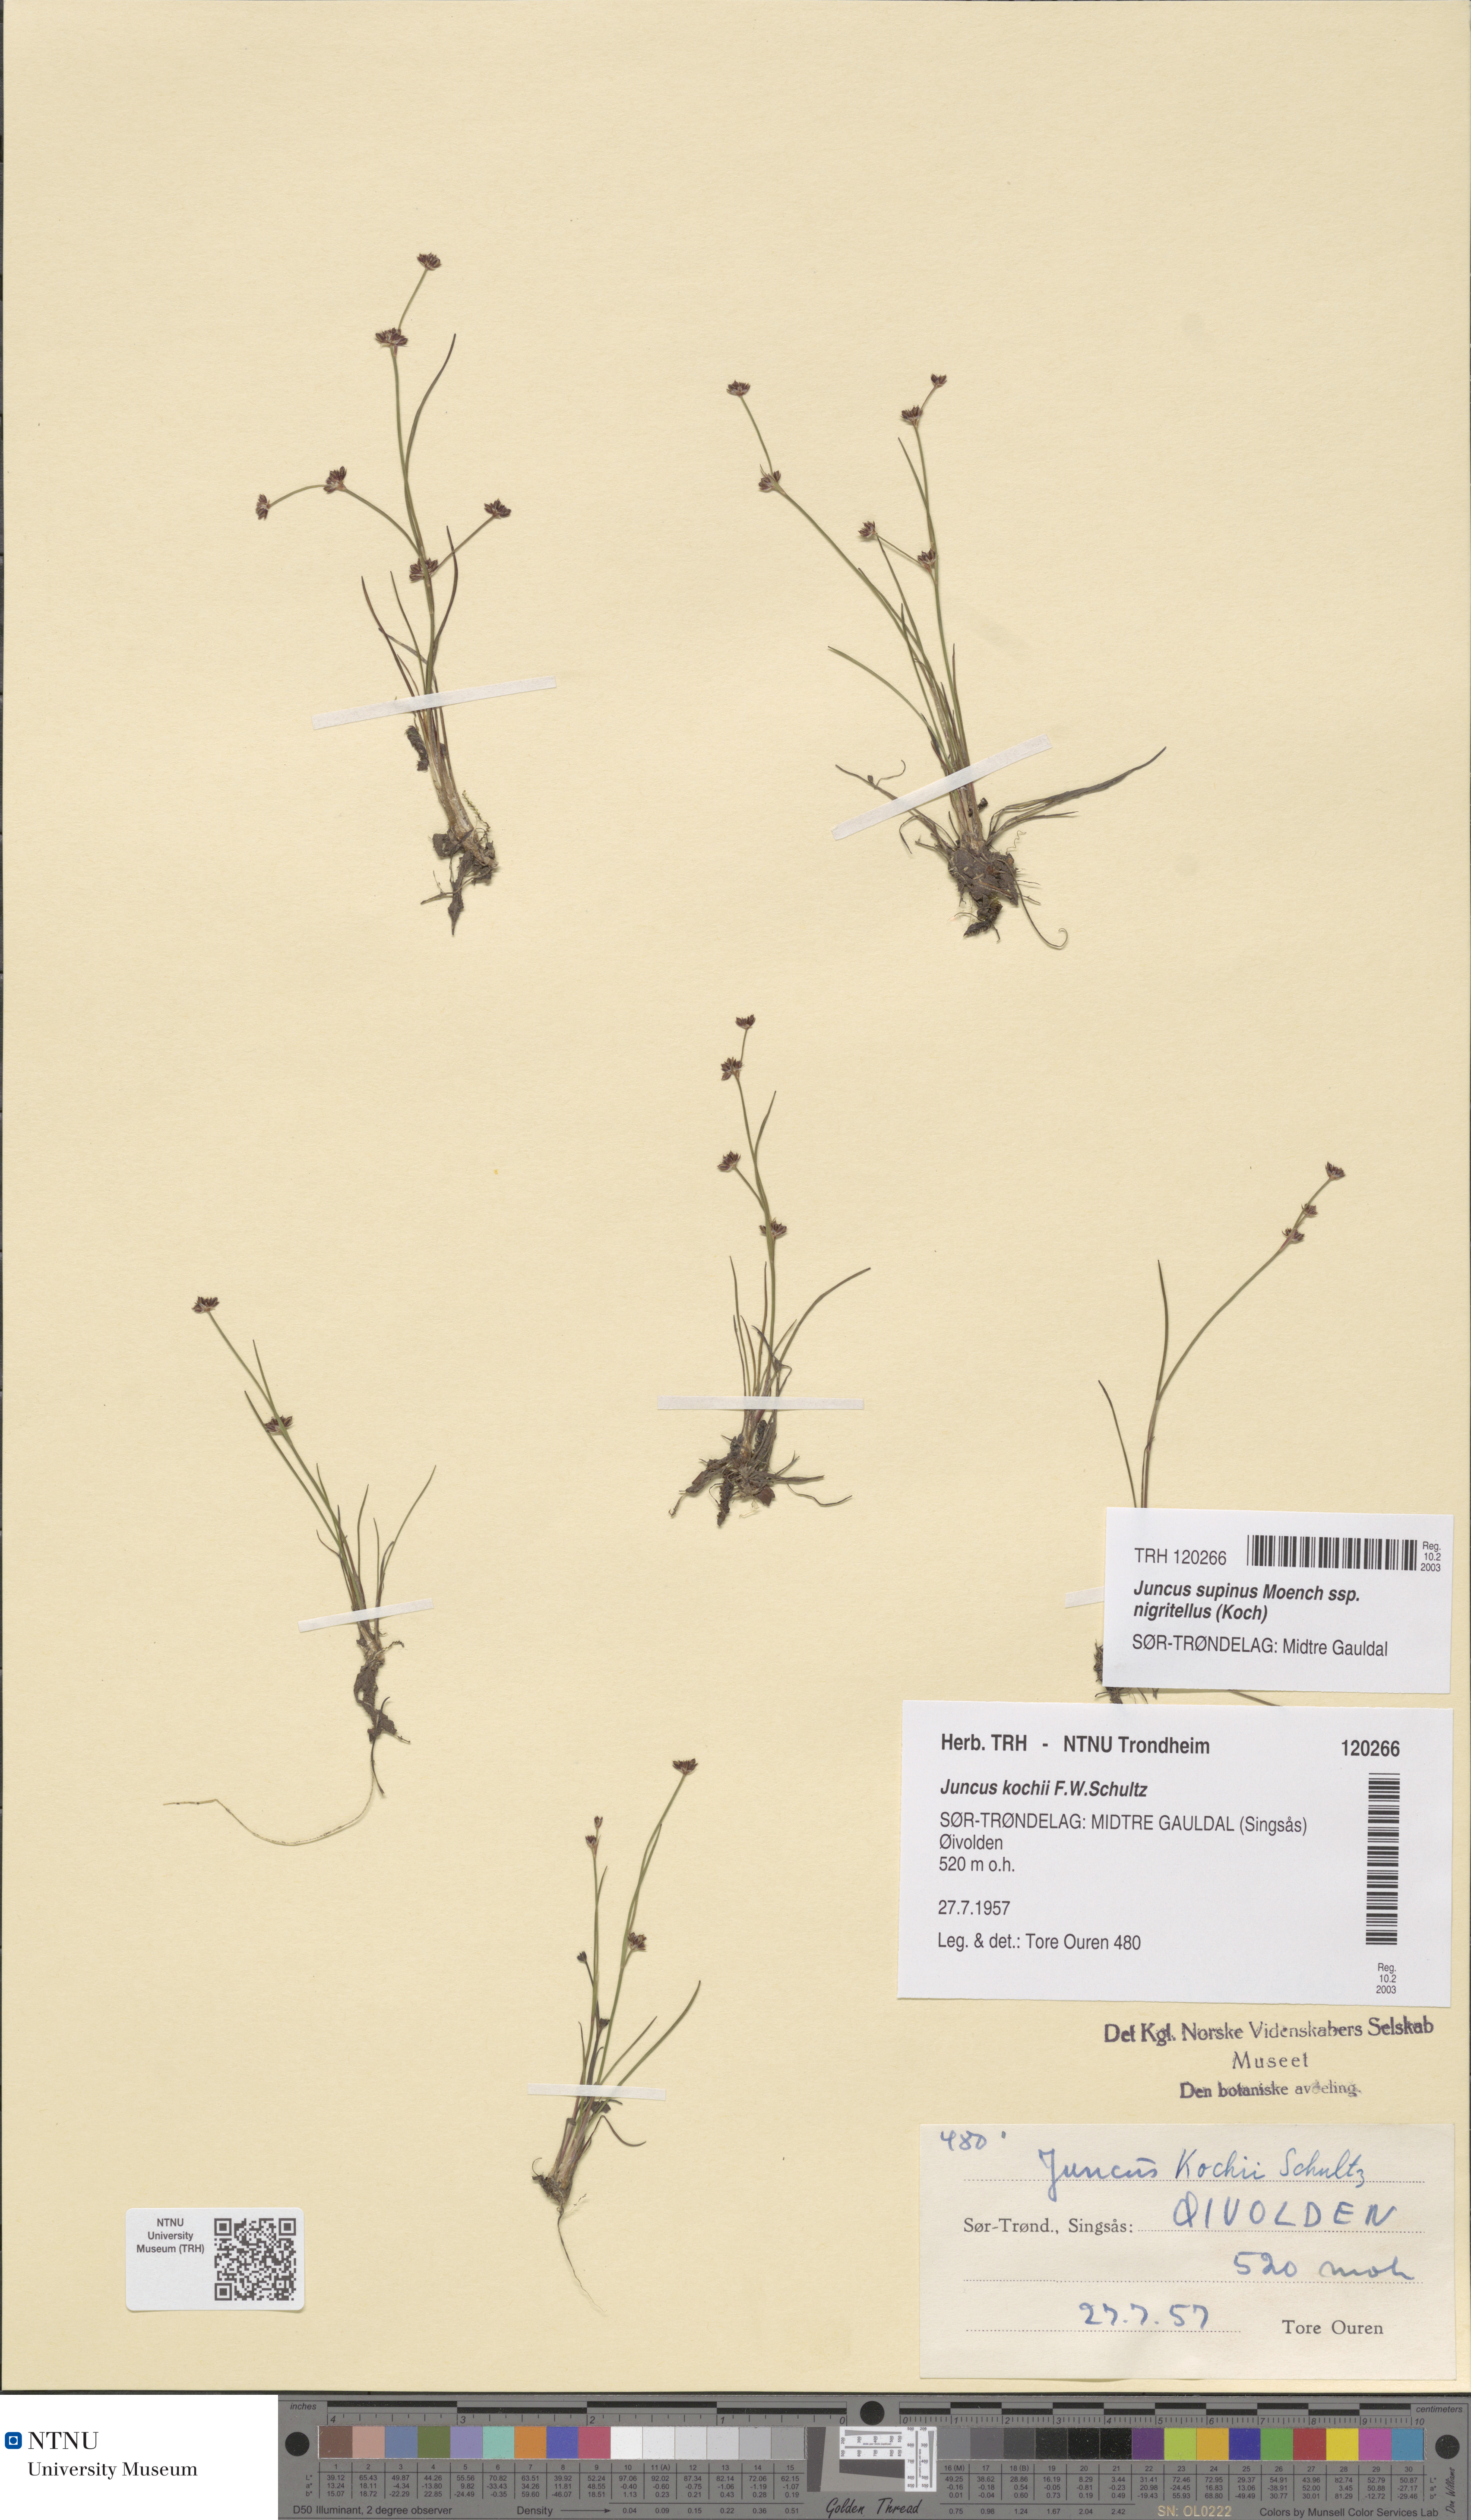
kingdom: Plantae
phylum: Tracheophyta
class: Liliopsida
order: Poales
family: Juncaceae
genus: Juncus
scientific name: Juncus bulbosus
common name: Bulbous rush
